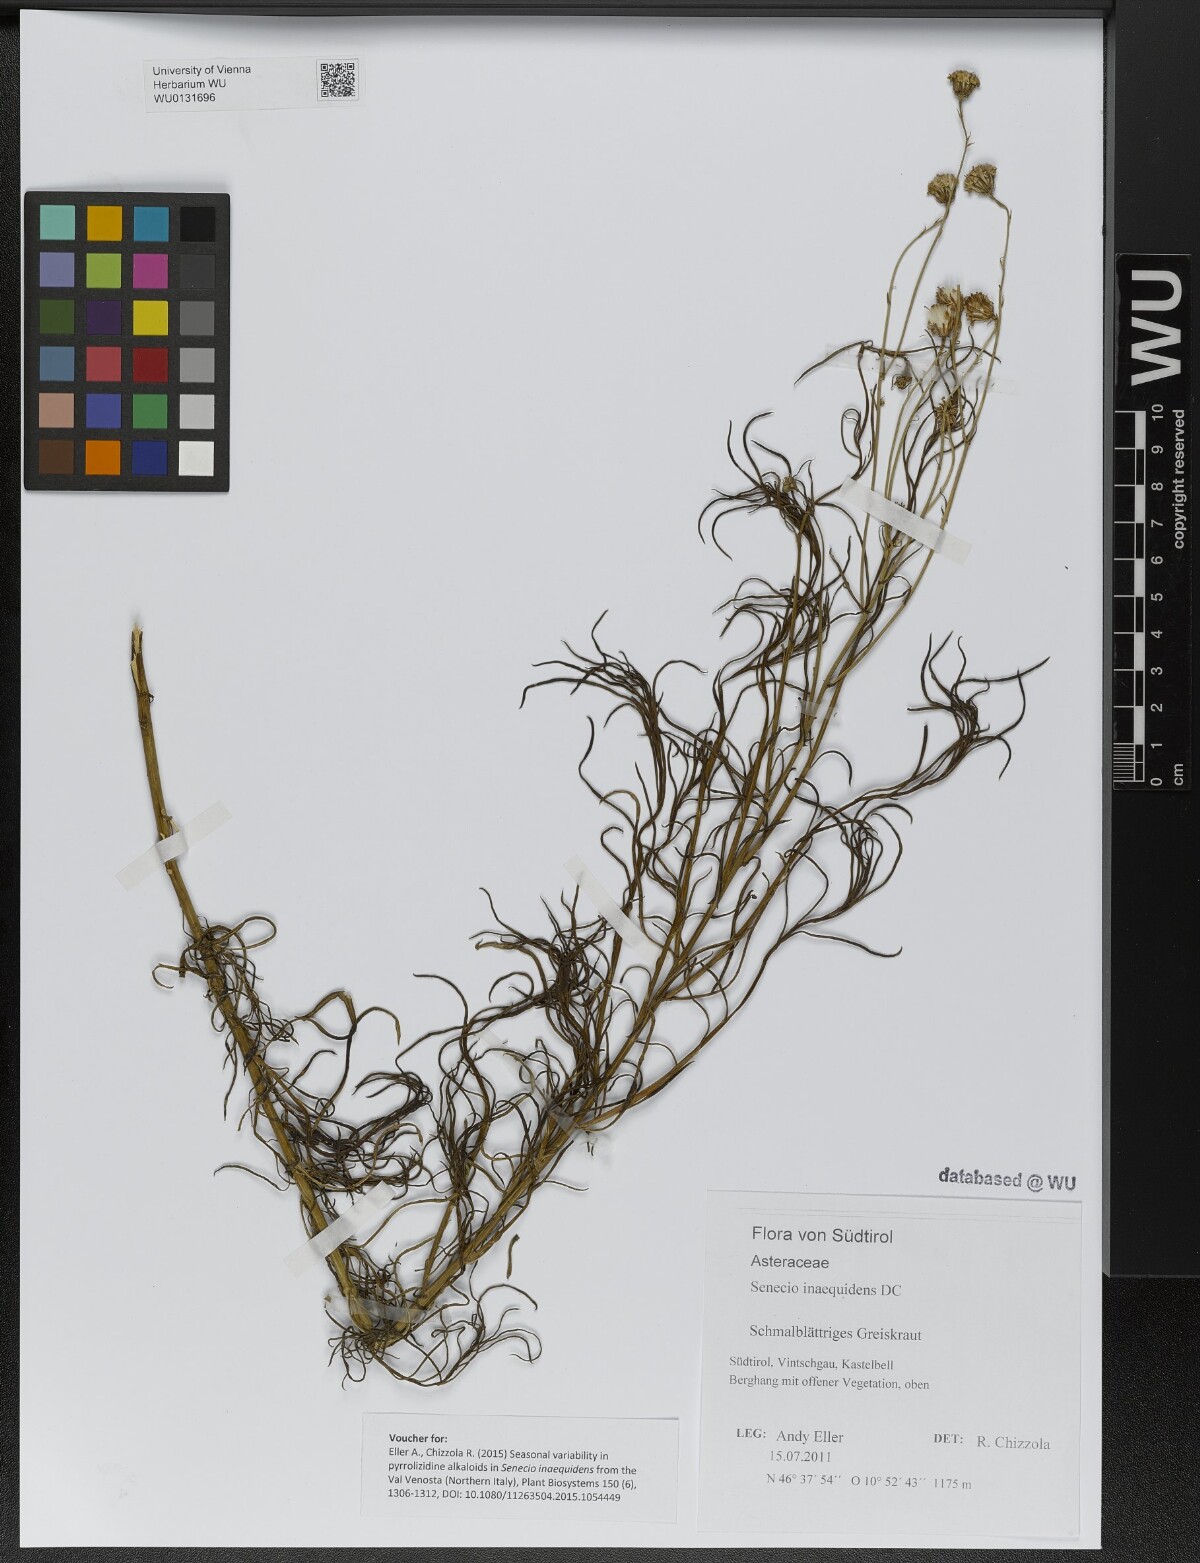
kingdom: Plantae
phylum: Tracheophyta
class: Magnoliopsida
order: Asterales
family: Asteraceae
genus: Senecio
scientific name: Senecio inaequidens
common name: Narrow-leaved ragwort
